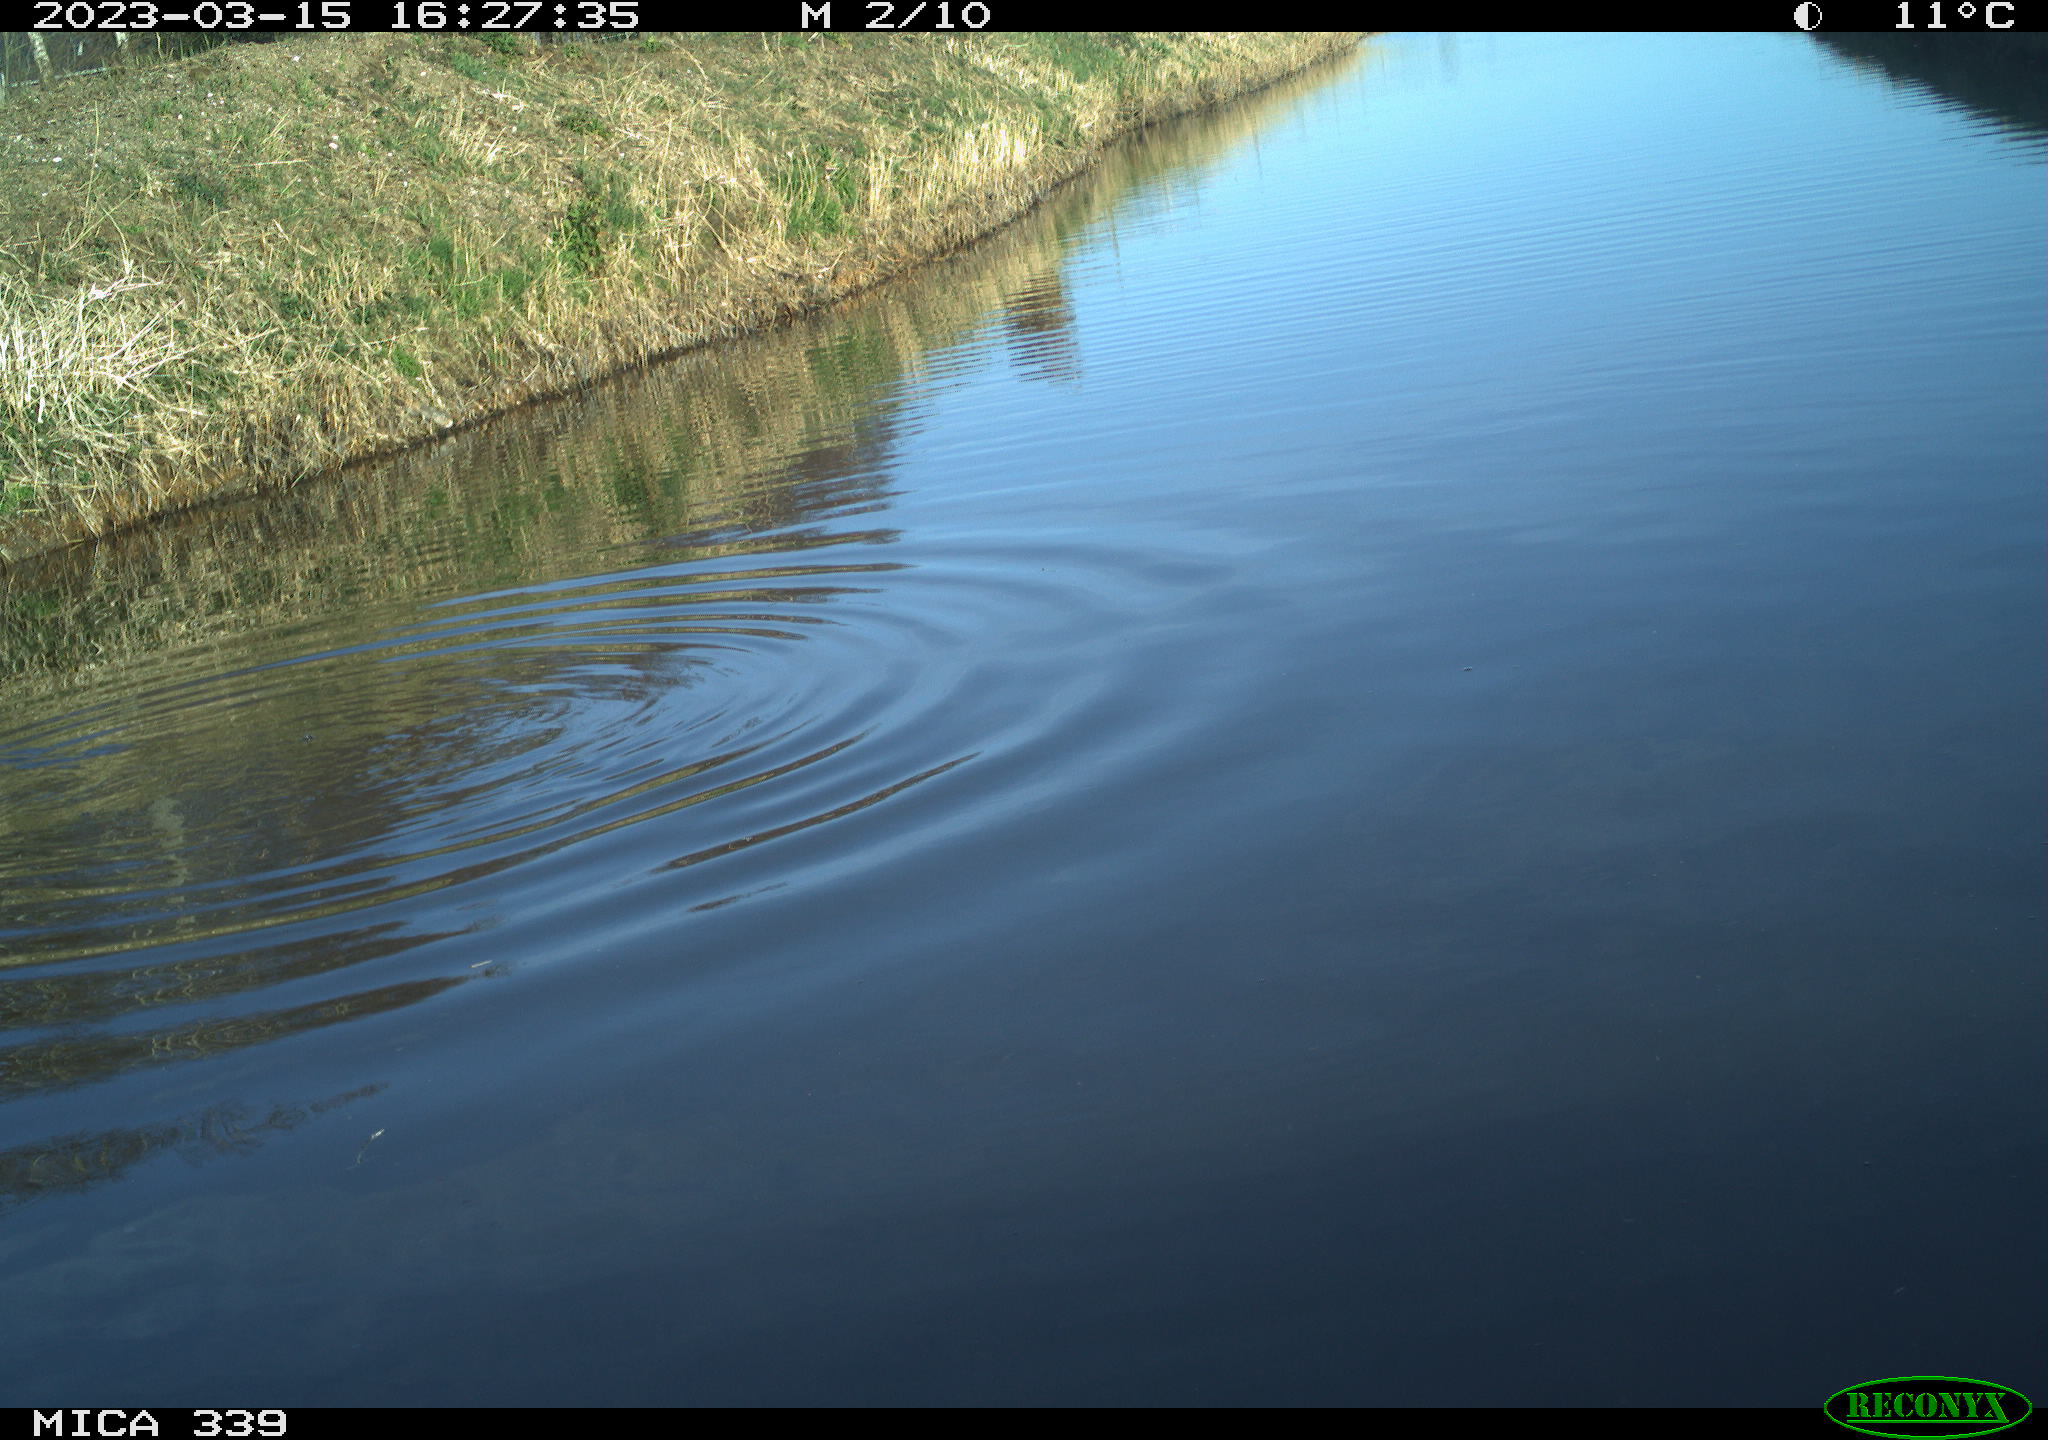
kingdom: Animalia
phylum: Chordata
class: Aves
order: Gruiformes
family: Rallidae
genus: Fulica
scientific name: Fulica atra
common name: Eurasian coot
